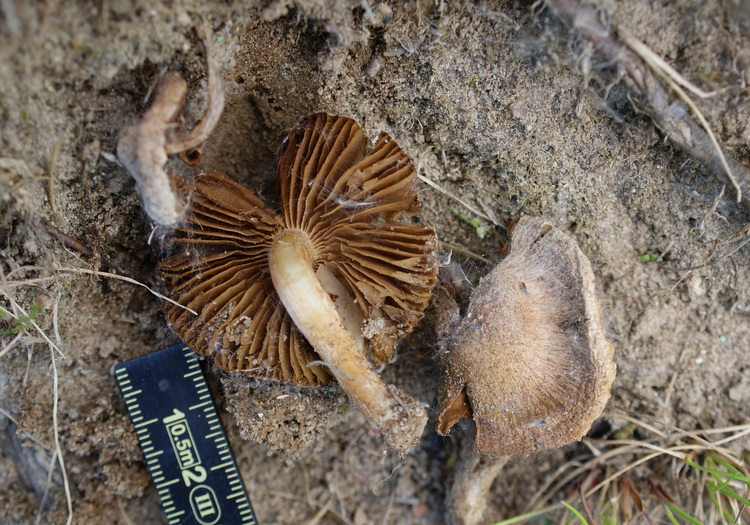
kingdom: Fungi
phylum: Basidiomycota
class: Agaricomycetes
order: Agaricales
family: Inocybaceae
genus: Inocybe
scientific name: Inocybe lacera
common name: laset trævlhat
